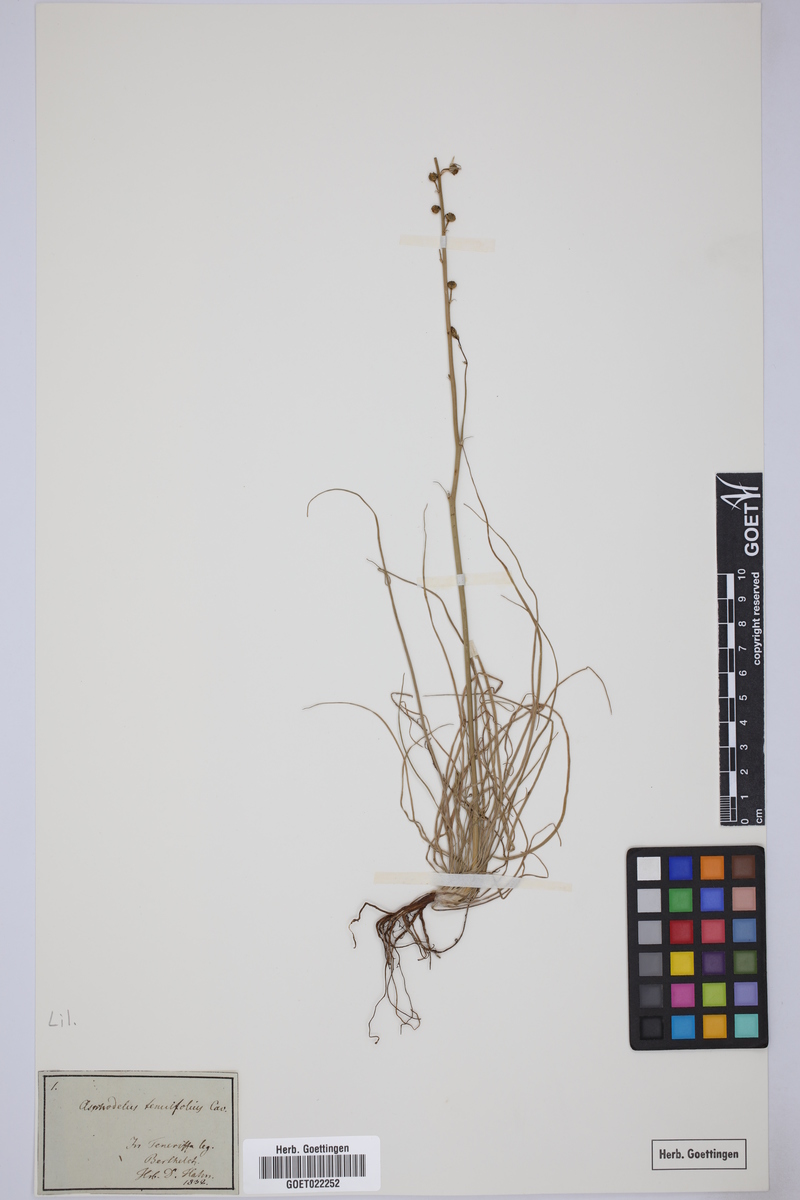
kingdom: Plantae
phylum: Tracheophyta
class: Liliopsida
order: Asparagales
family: Asphodelaceae
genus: Asphodelus
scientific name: Asphodelus tenuifolius
